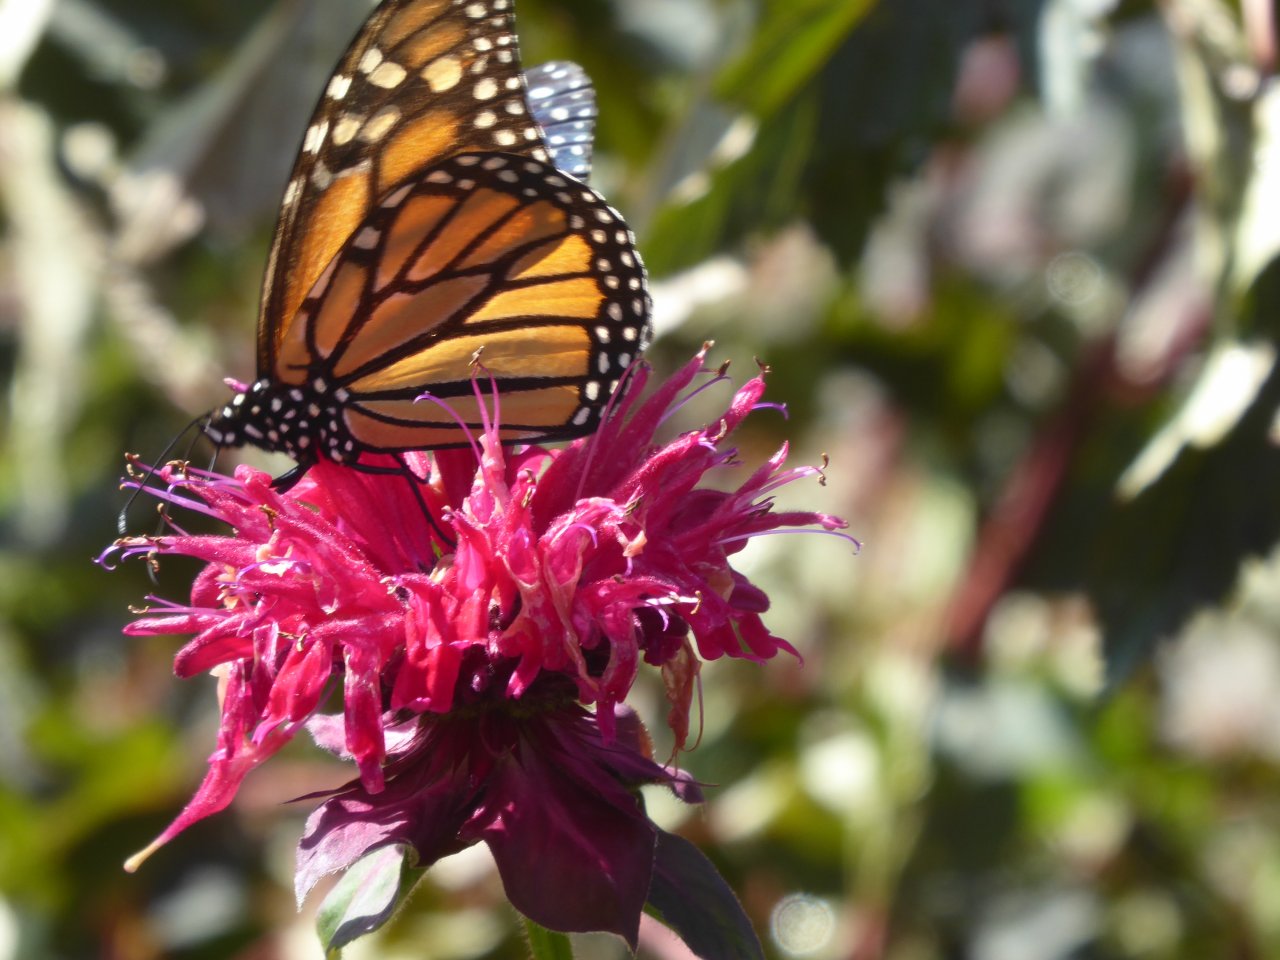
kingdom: Animalia
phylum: Arthropoda
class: Insecta
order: Lepidoptera
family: Nymphalidae
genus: Danaus
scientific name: Danaus plexippus
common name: Monarch
